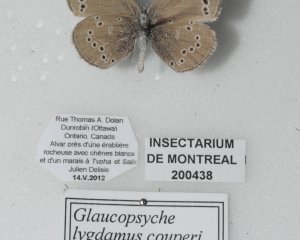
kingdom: Animalia
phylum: Arthropoda
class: Insecta
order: Lepidoptera
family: Lycaenidae
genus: Glaucopsyche
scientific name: Glaucopsyche lygdamus
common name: Silvery Blue
